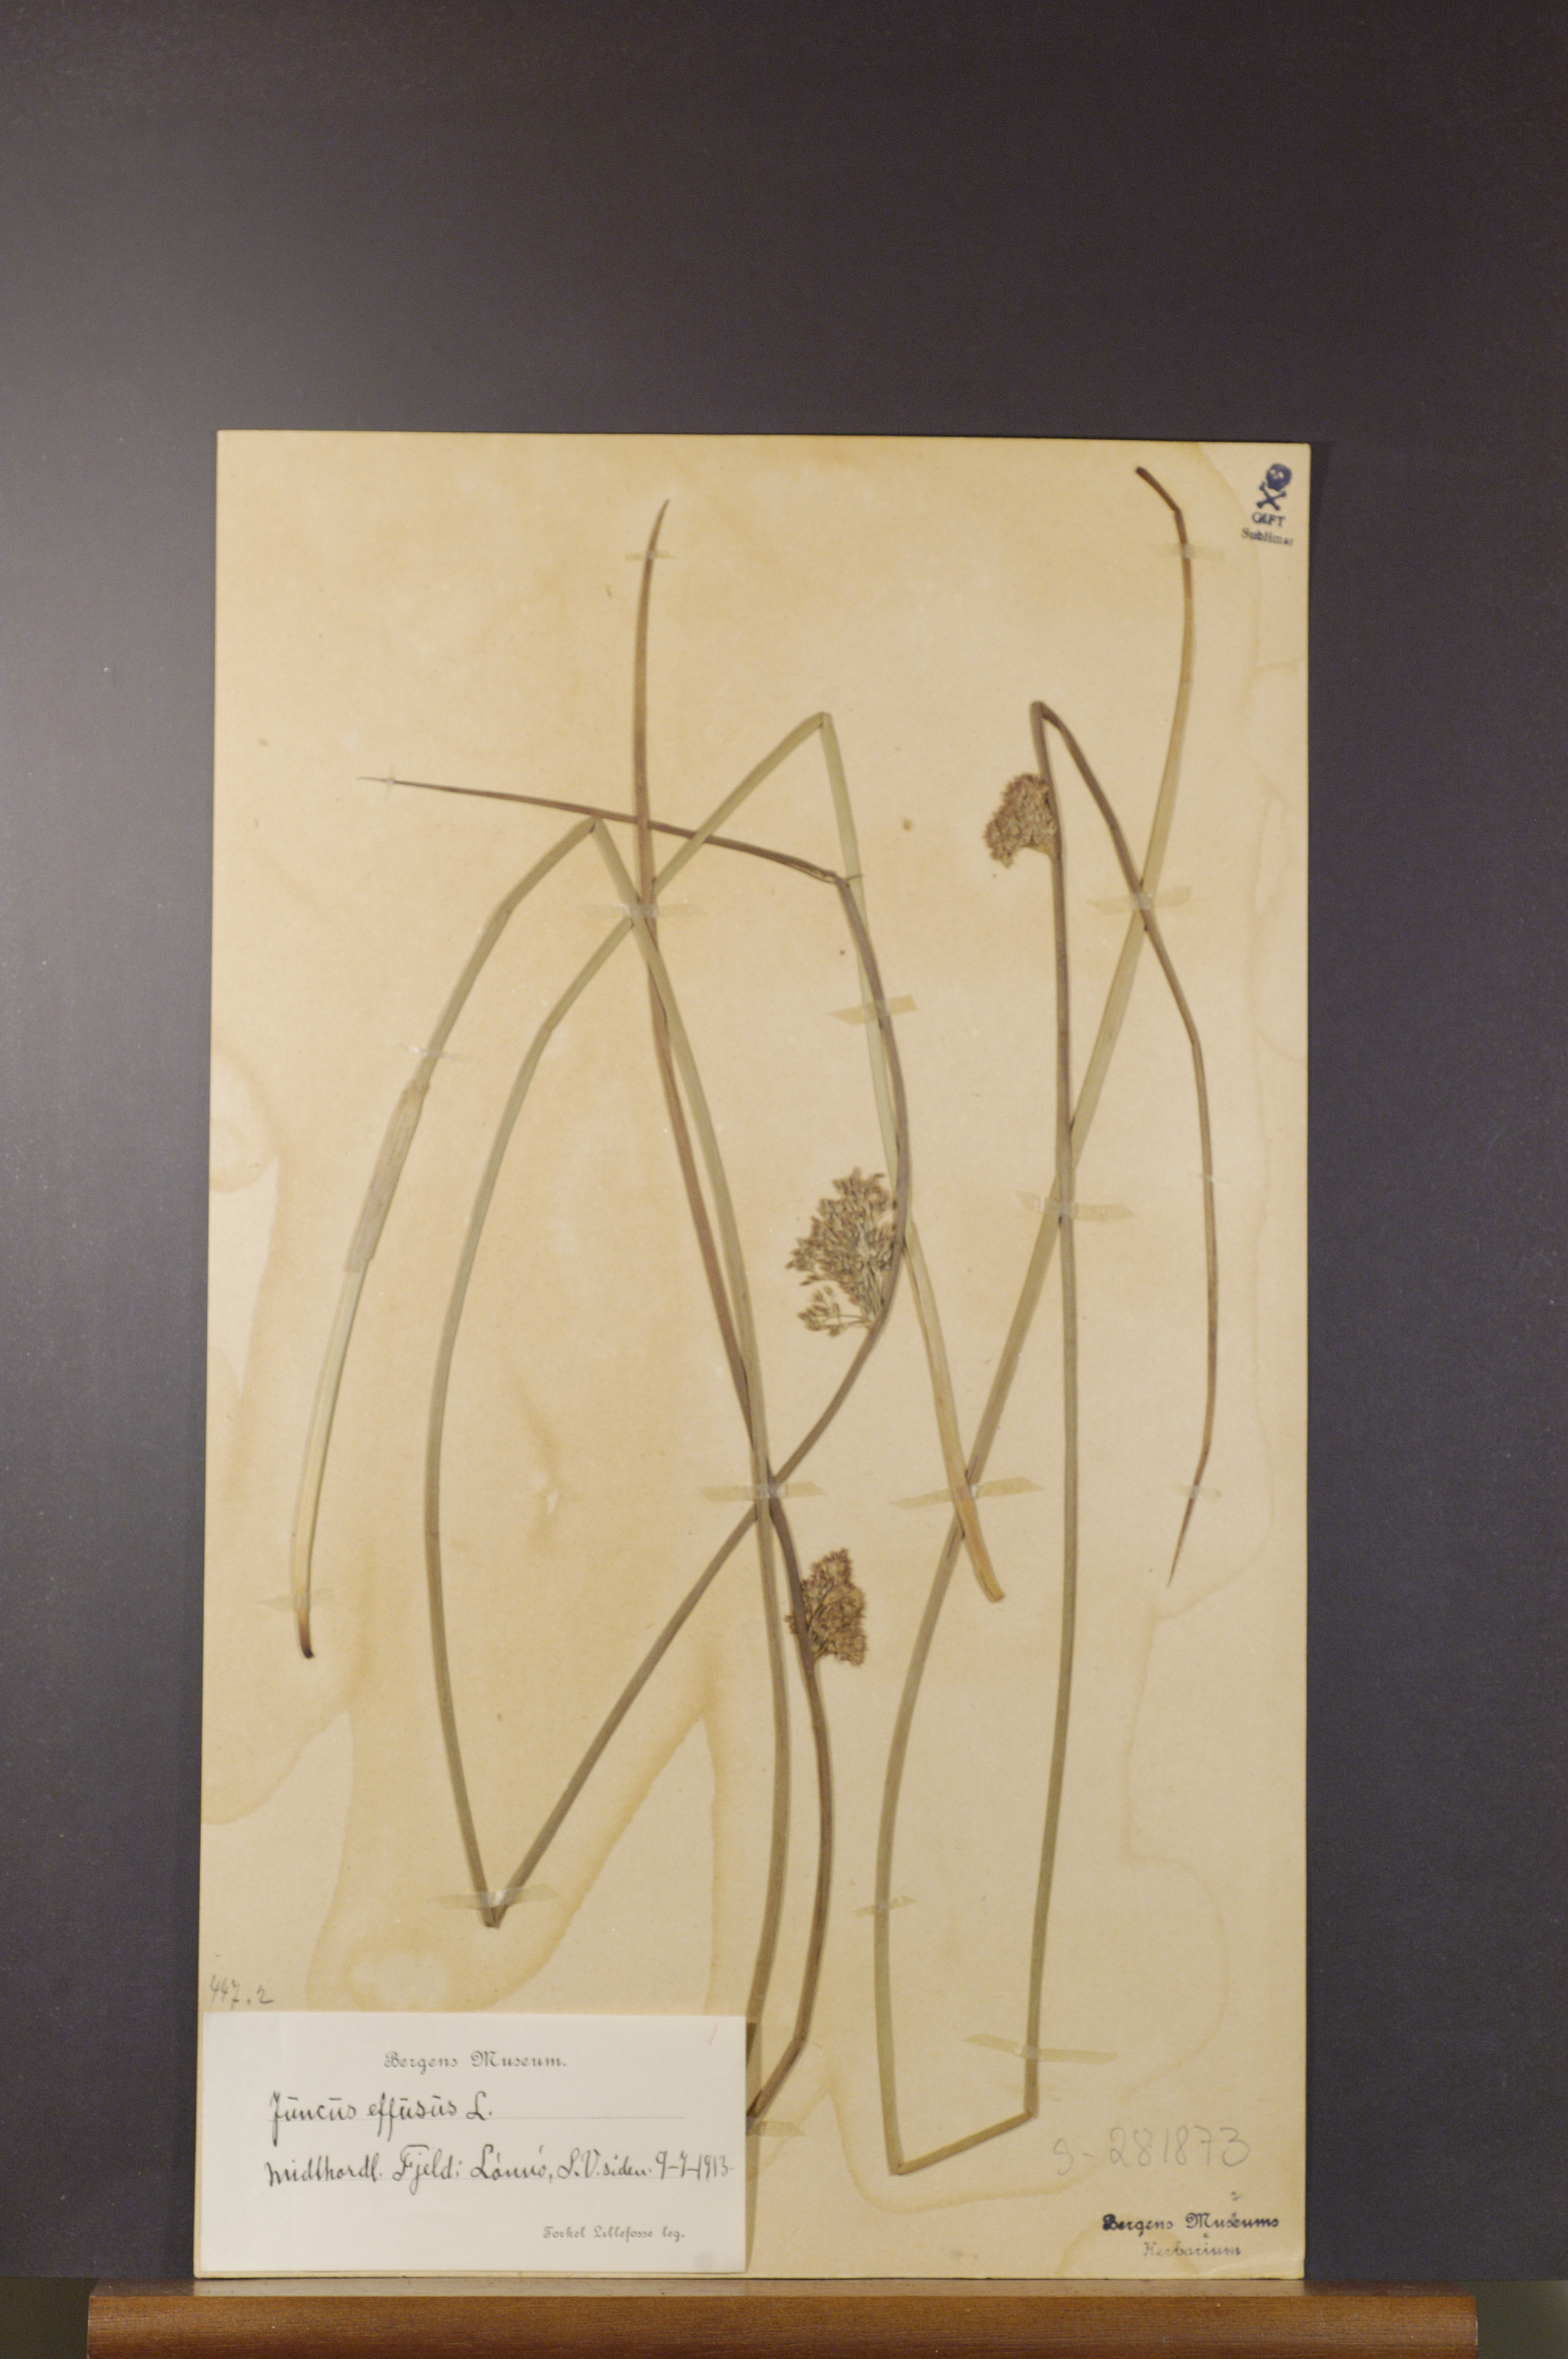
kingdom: Plantae
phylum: Tracheophyta
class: Liliopsida
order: Poales
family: Juncaceae
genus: Juncus
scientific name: Juncus effusus
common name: Soft rush
